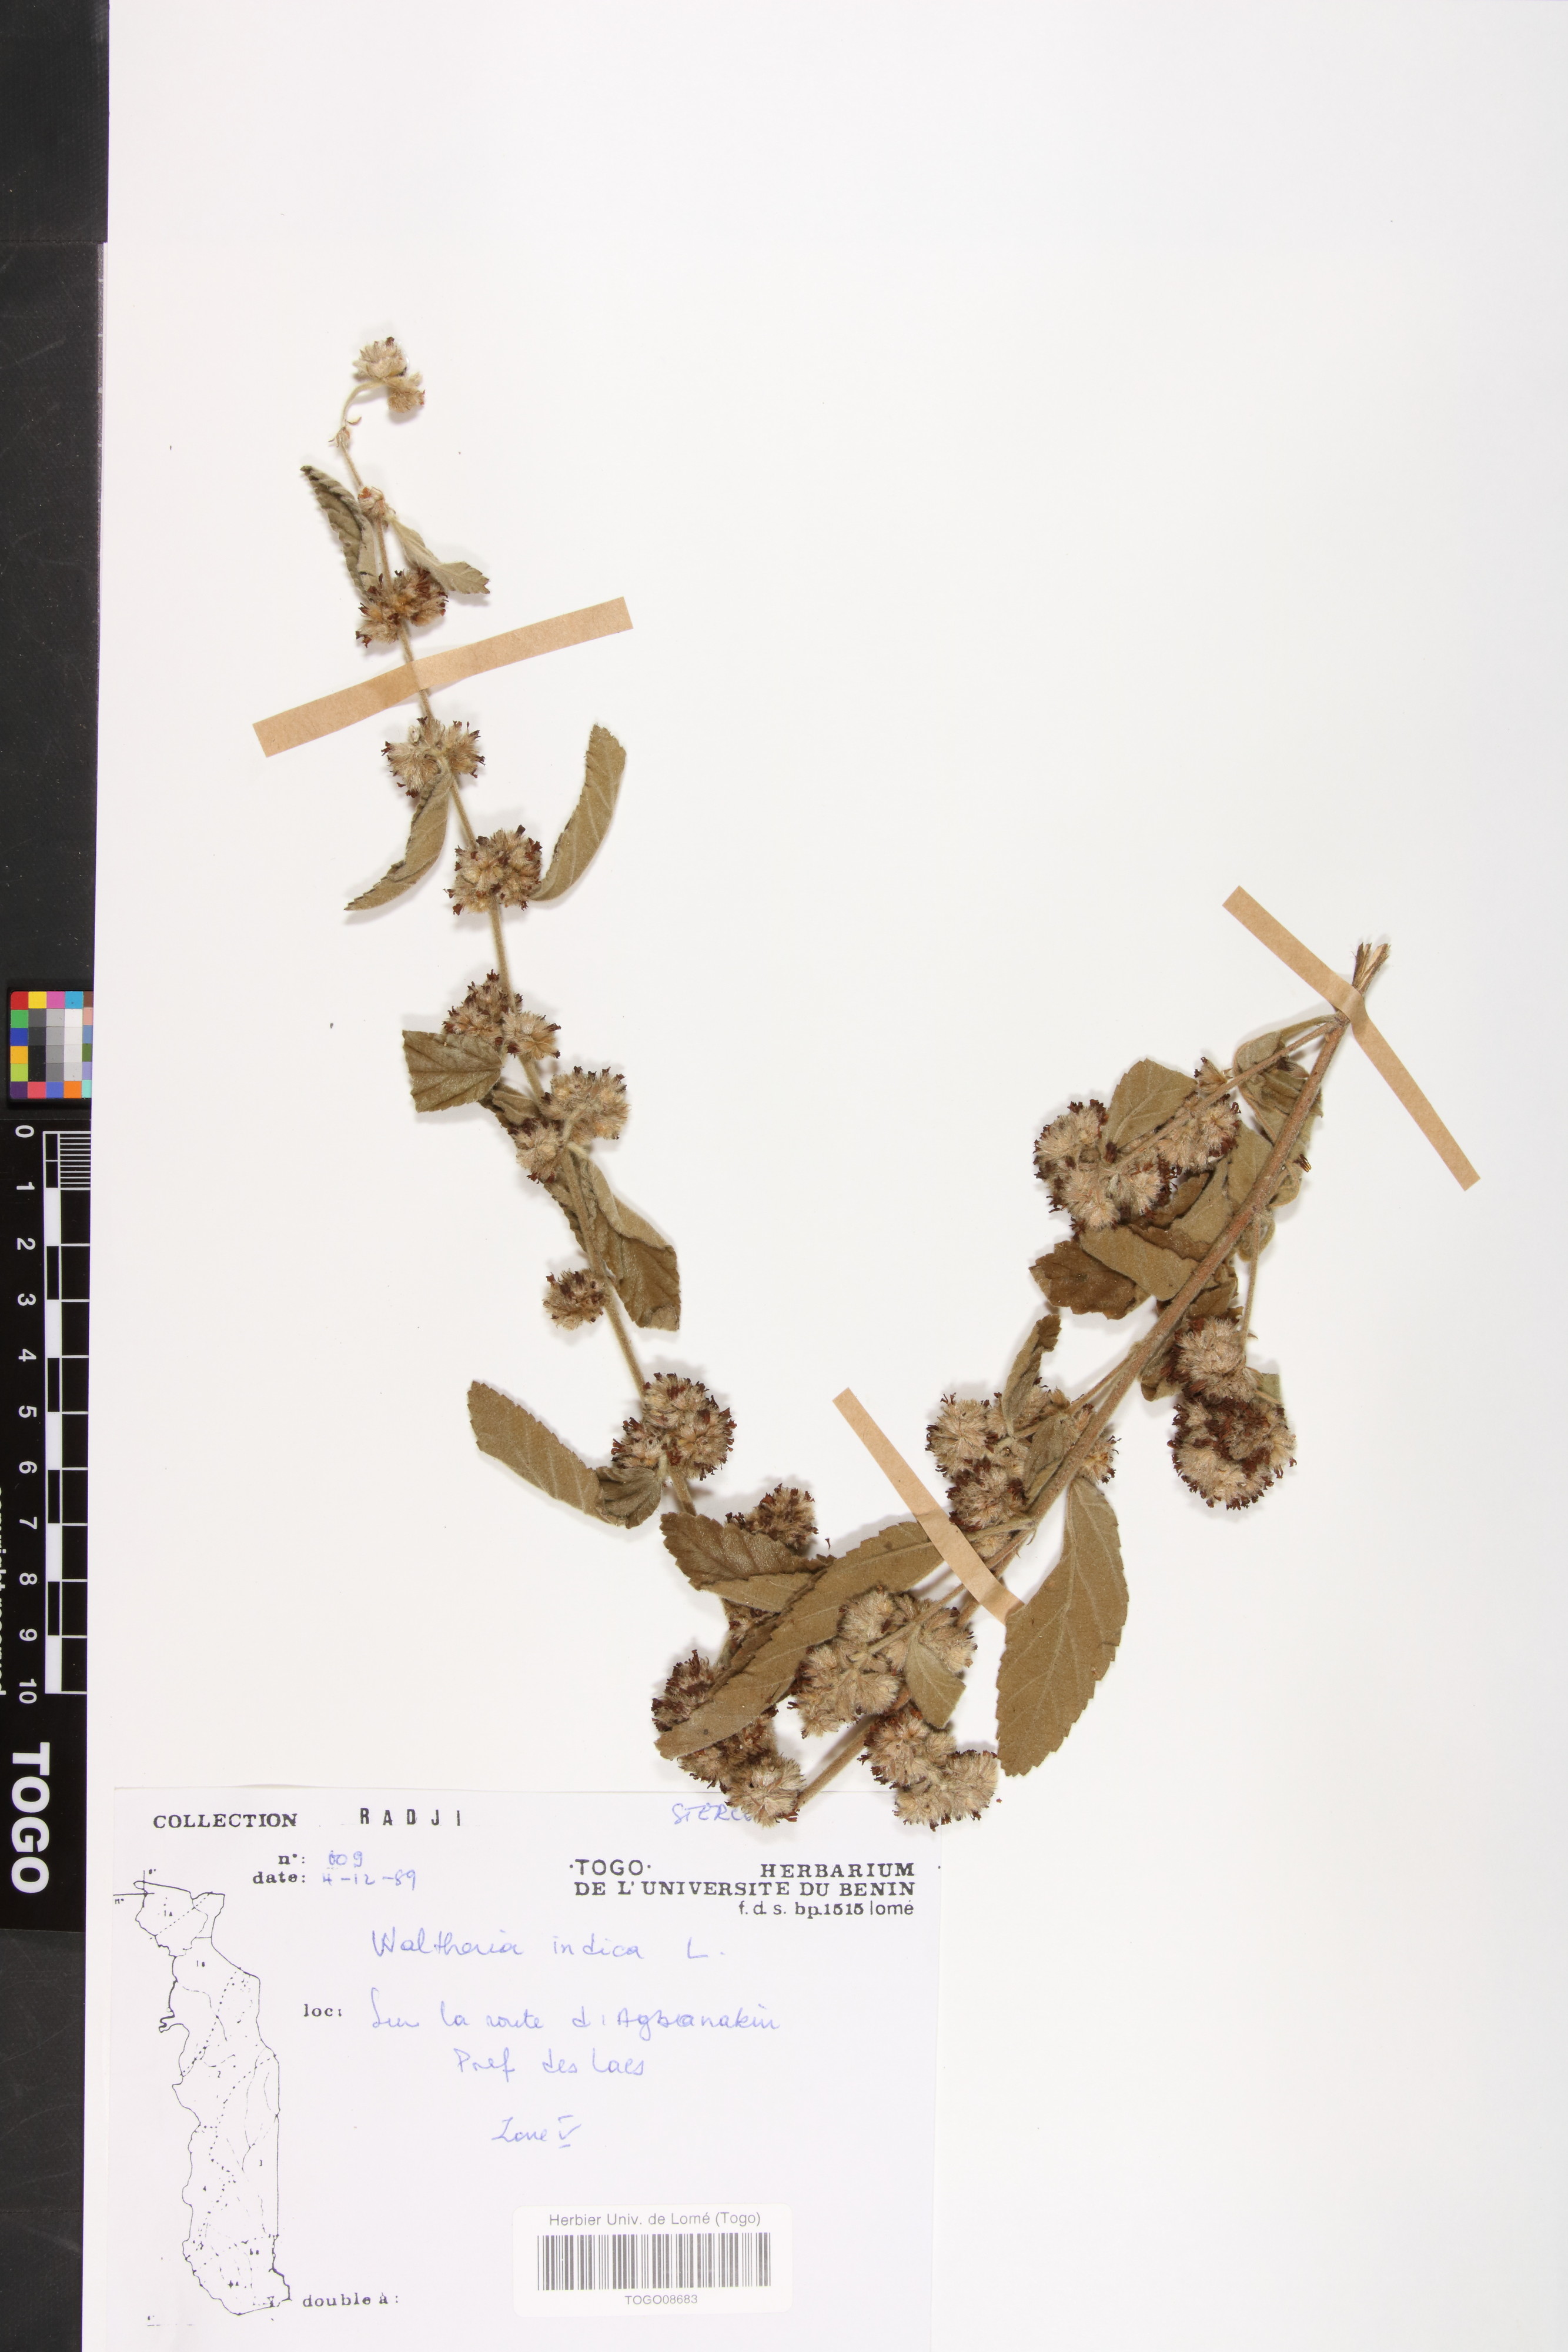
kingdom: Plantae
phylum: Tracheophyta
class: Magnoliopsida
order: Malvales
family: Malvaceae
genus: Waltheria
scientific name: Waltheria indica
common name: Leather-coat
